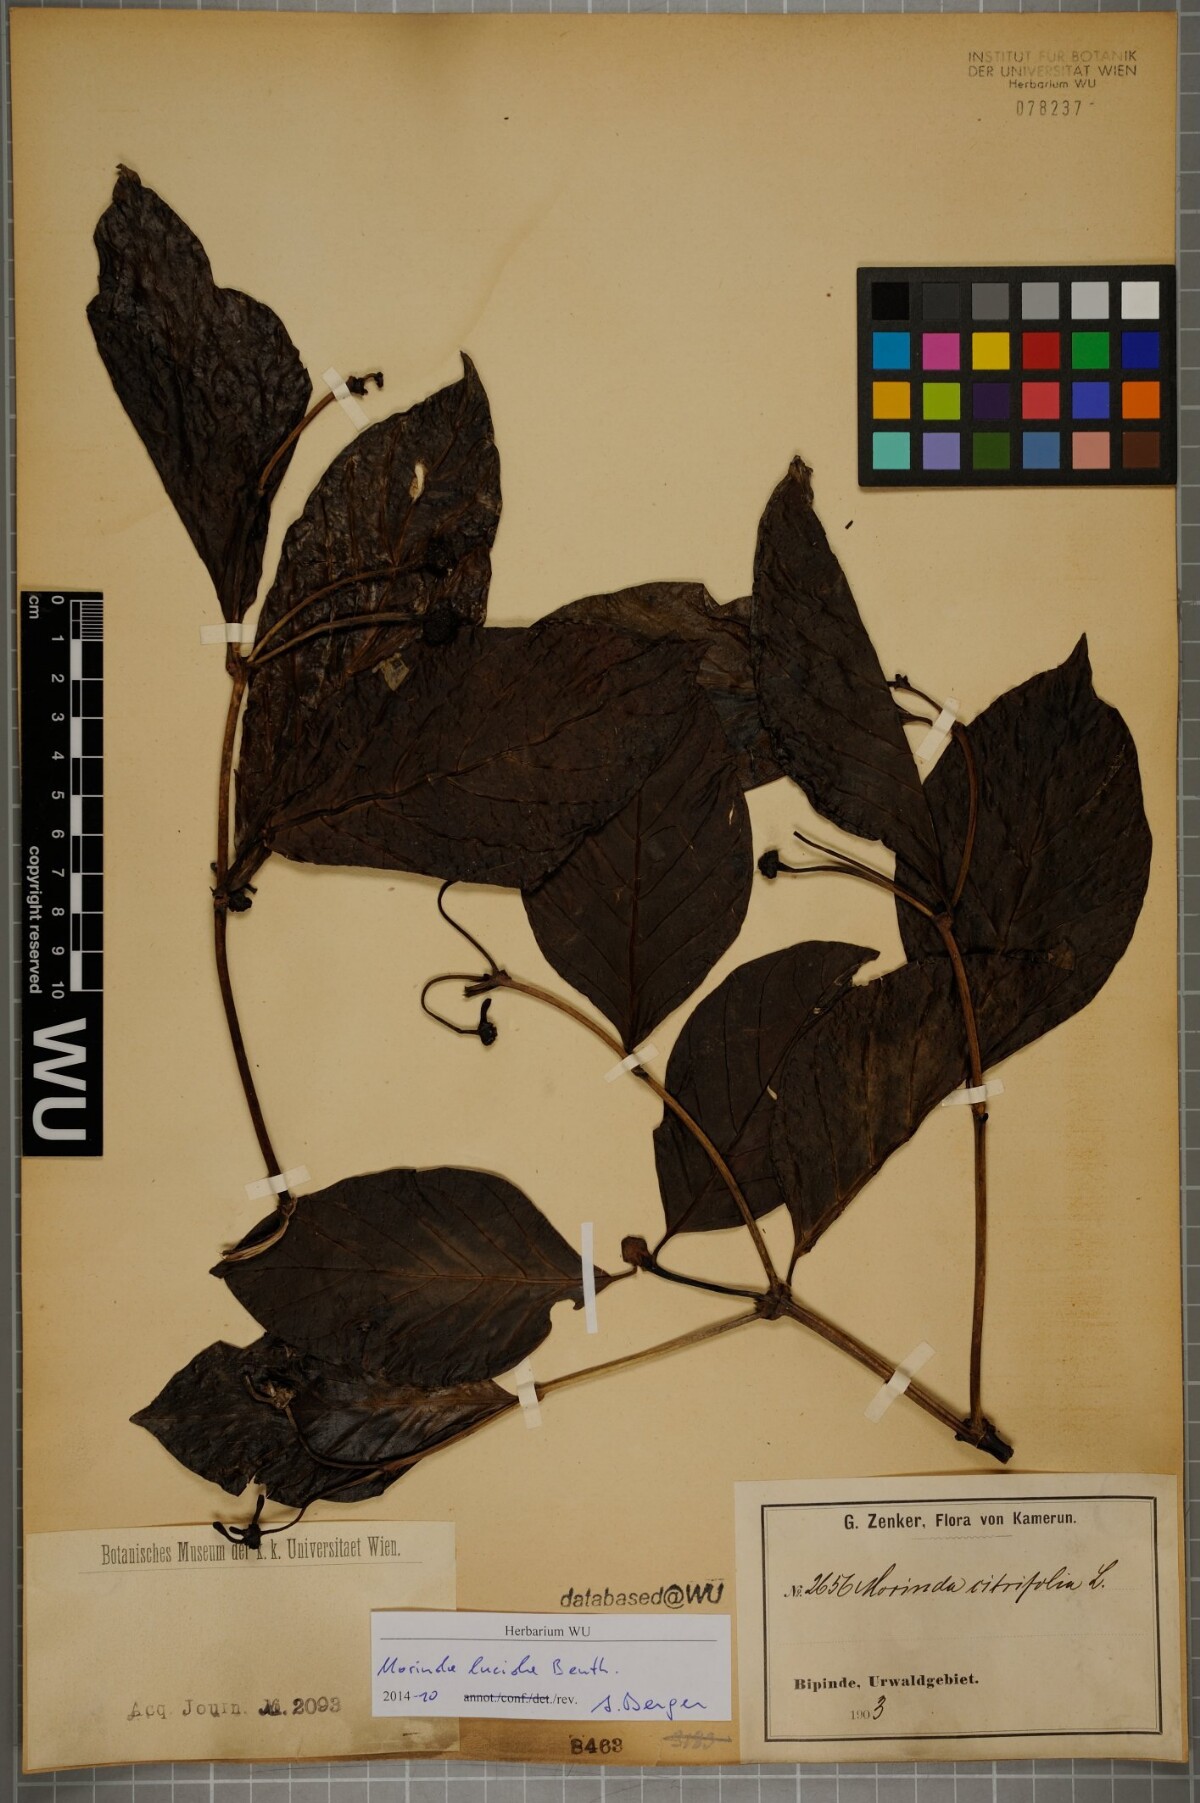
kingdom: Plantae
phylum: Tracheophyta
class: Magnoliopsida
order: Gentianales
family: Rubiaceae
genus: Morinda
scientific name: Morinda lucida
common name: Brimstonetree
